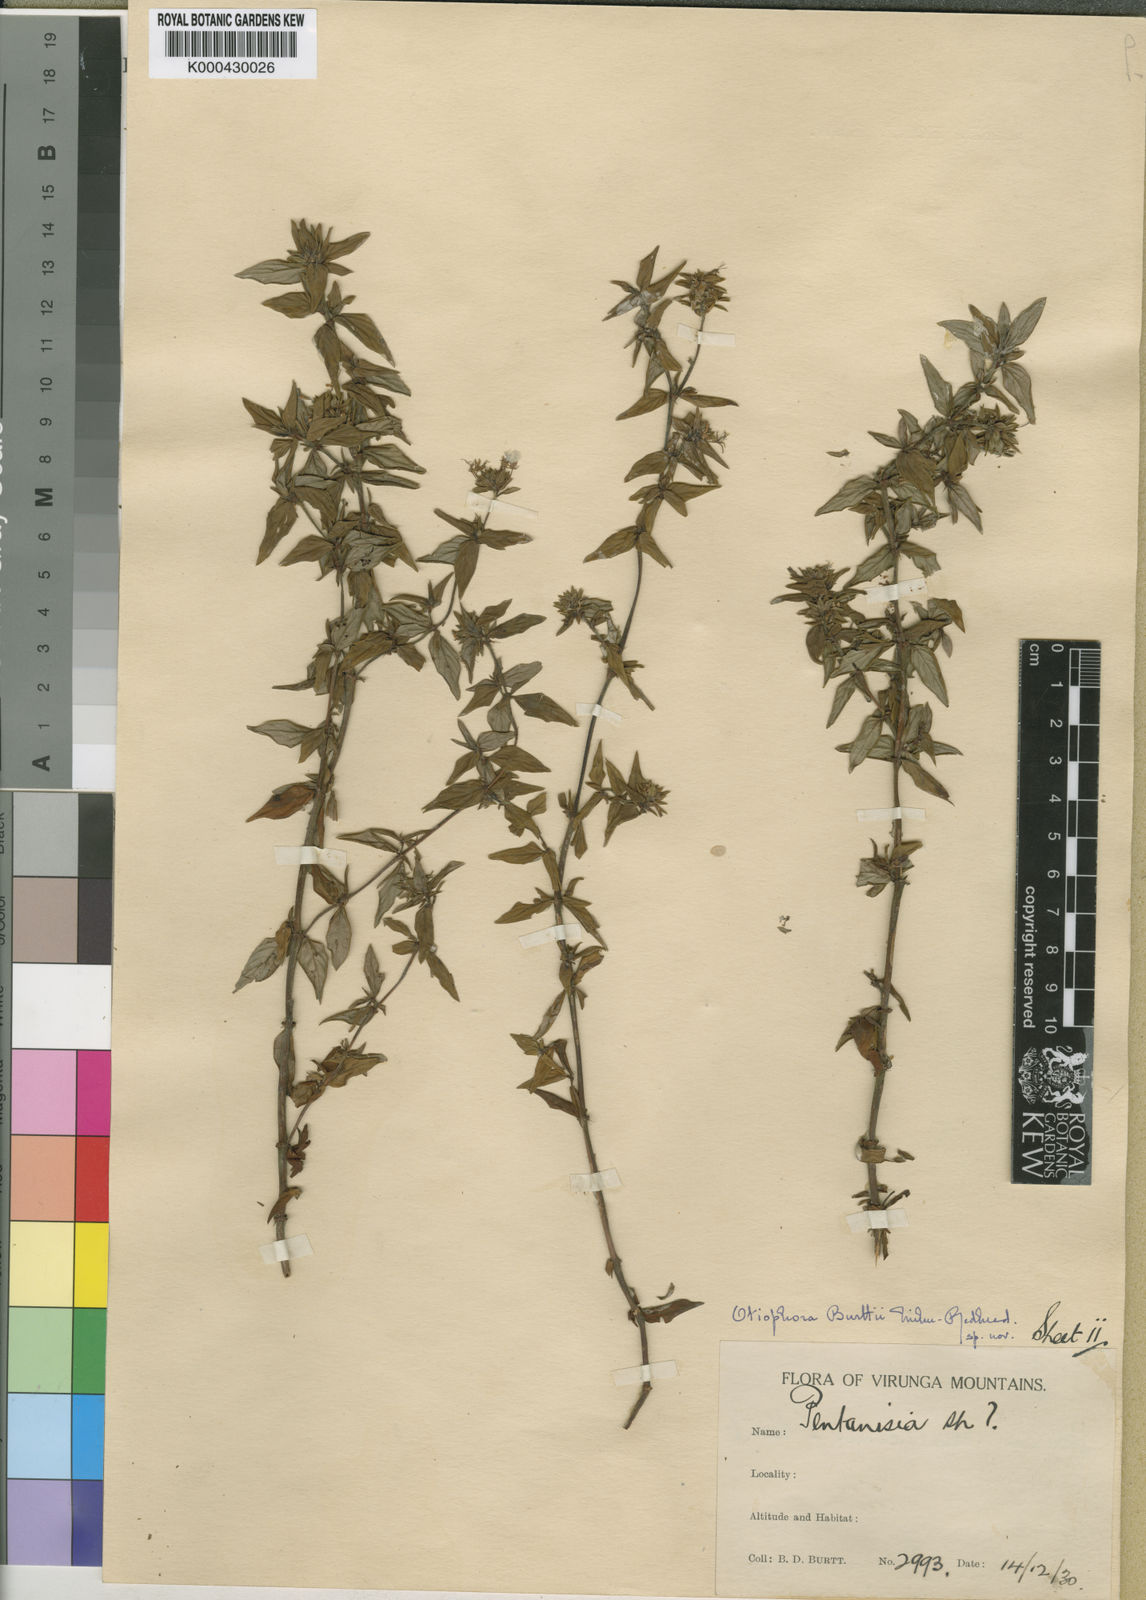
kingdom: Plantae
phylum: Tracheophyta
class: Magnoliopsida
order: Gentianales
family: Rubiaceae
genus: Otiophora
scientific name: Otiophora pauciflora
